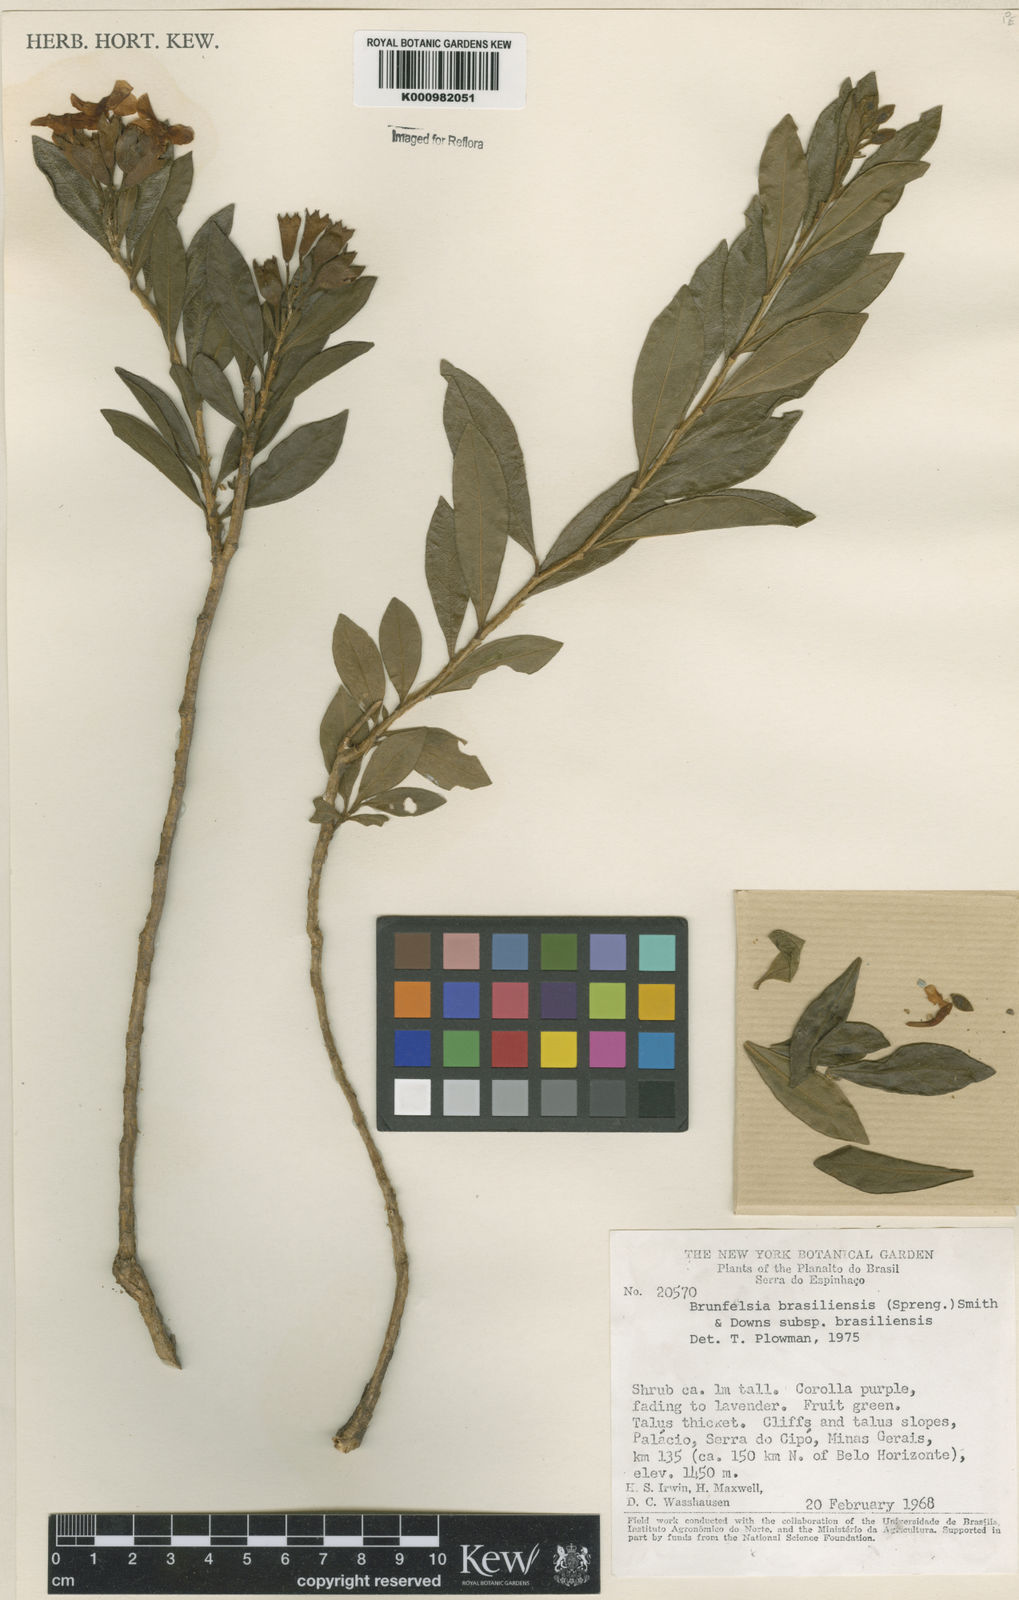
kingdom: Plantae
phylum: Tracheophyta
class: Magnoliopsida
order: Solanales
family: Solanaceae
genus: Brunfelsia
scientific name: Brunfelsia brasiliensis
